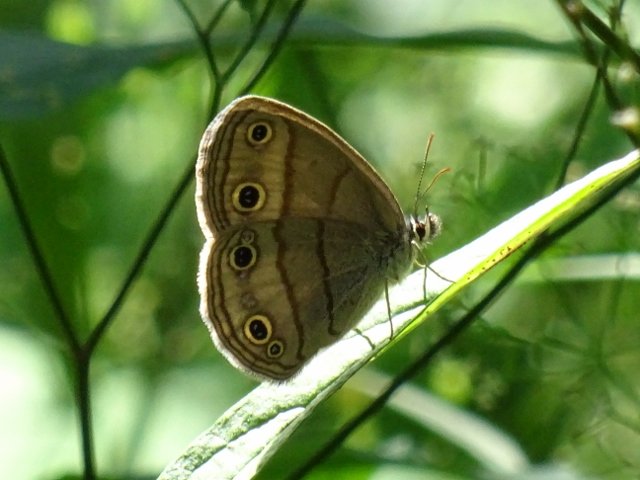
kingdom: Animalia
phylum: Arthropoda
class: Insecta
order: Lepidoptera
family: Nymphalidae
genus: Euptychia
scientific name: Euptychia cymela
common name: Little Wood Satyr
